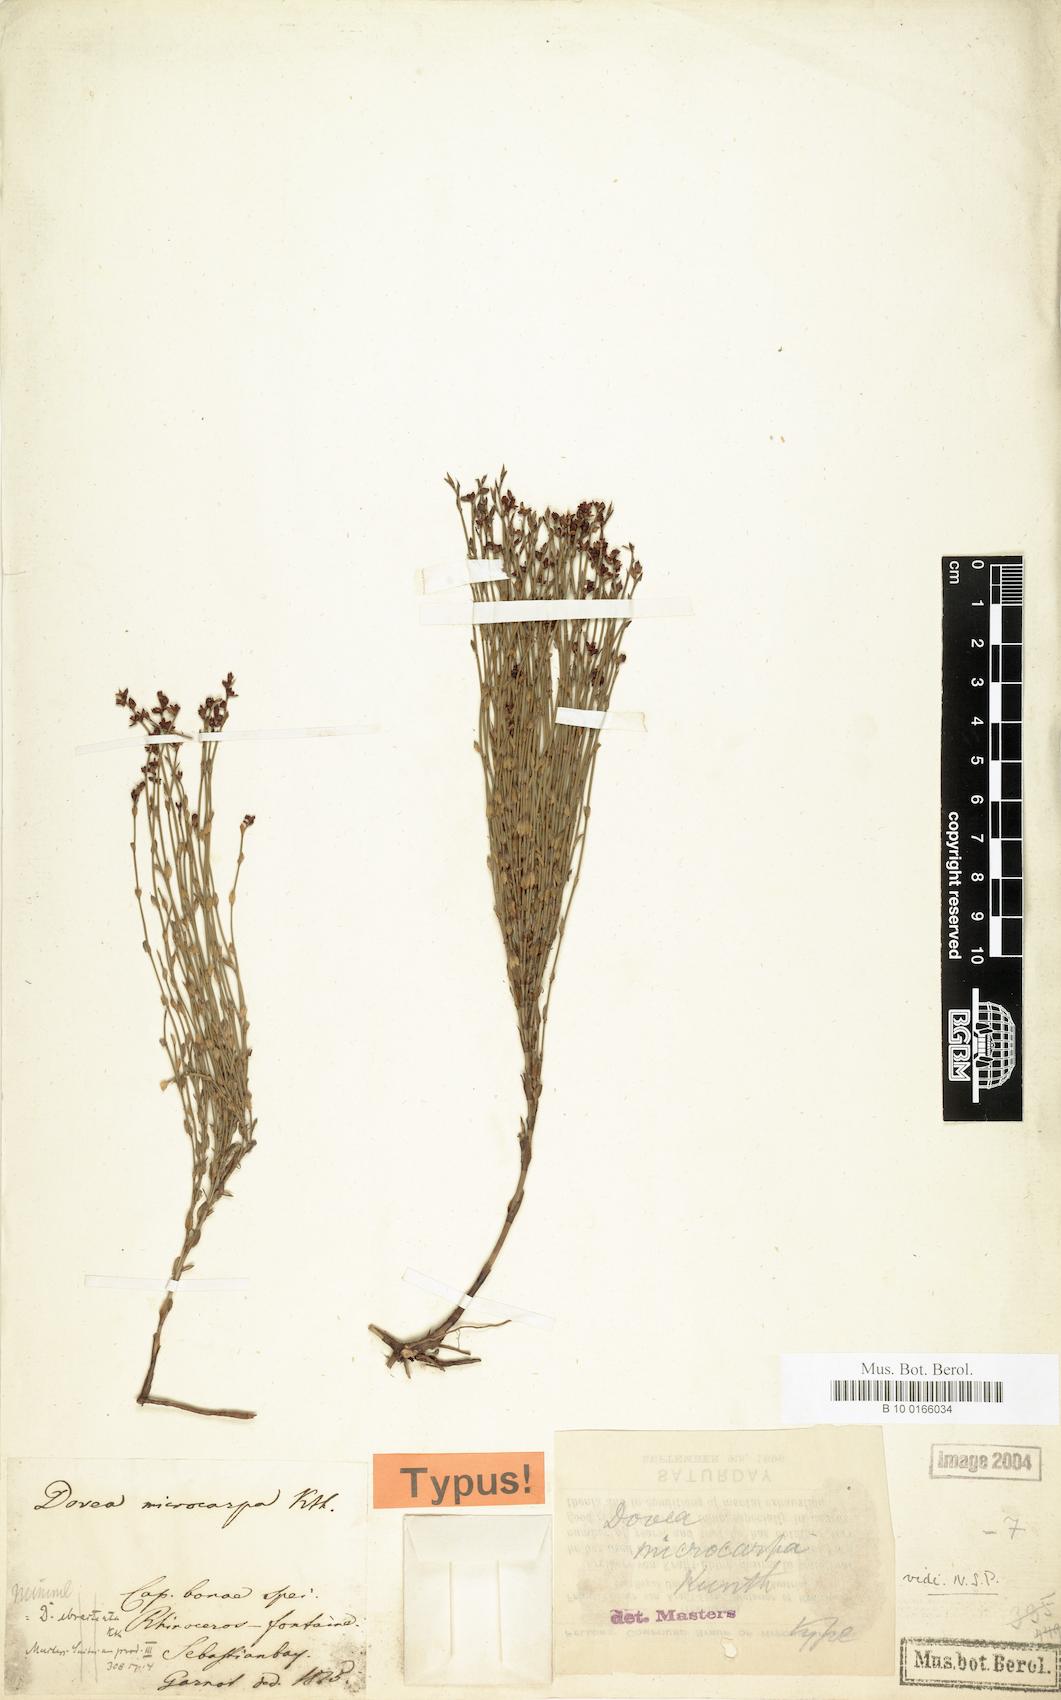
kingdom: Plantae
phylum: Tracheophyta
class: Liliopsida
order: Poales
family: Restionaceae
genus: Elegia
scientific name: Elegia microcarpa
